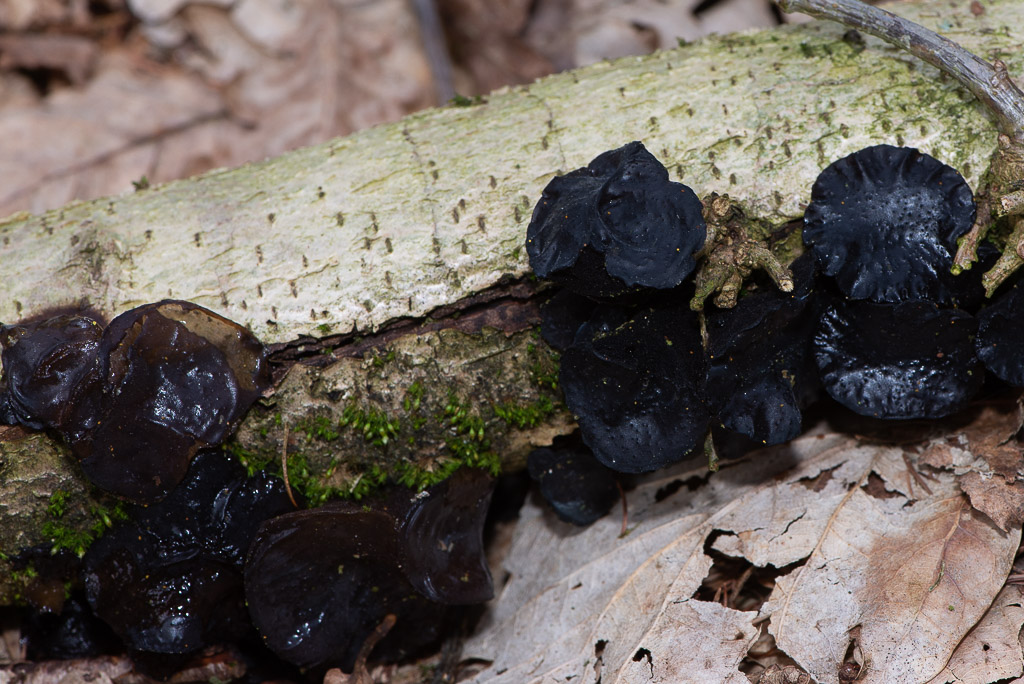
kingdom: Fungi
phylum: Basidiomycota
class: Agaricomycetes
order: Auriculariales
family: Auriculariaceae
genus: Exidia
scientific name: Exidia glandulosa
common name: ege-bævretop
